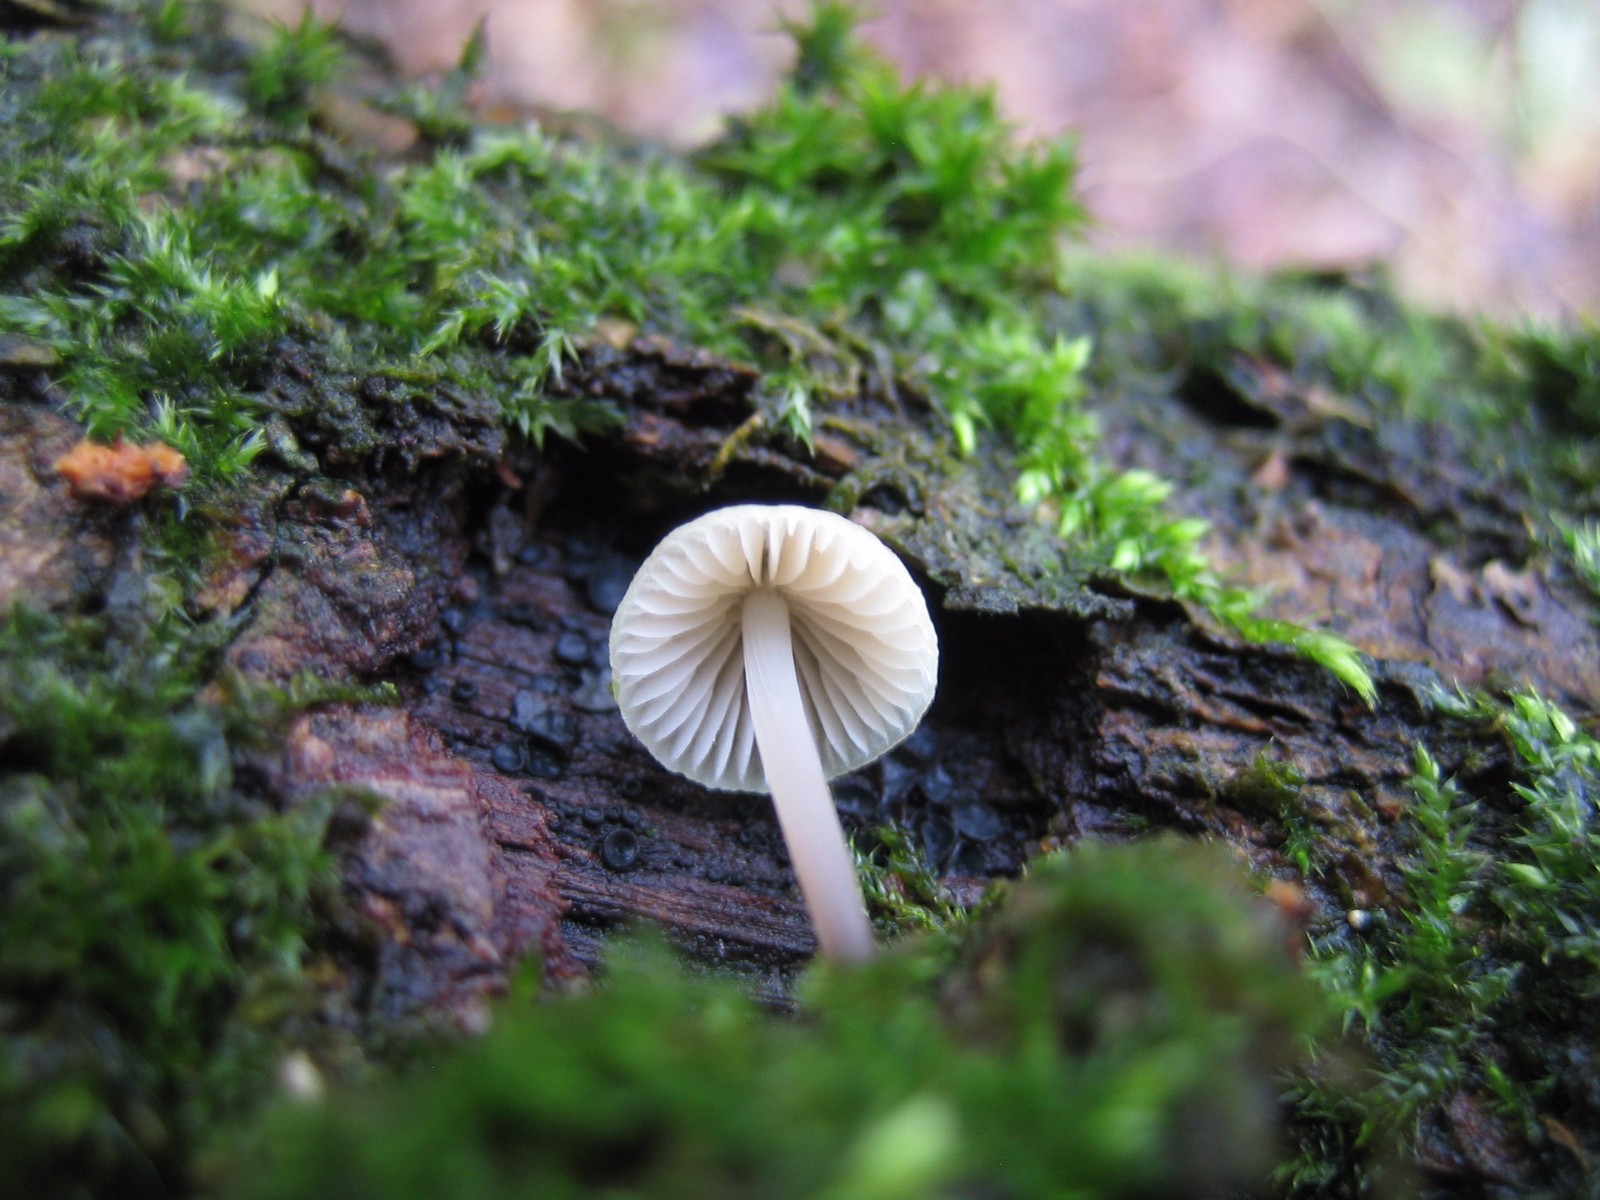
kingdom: Fungi
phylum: Basidiomycota
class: Agaricomycetes
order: Agaricales
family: Mycenaceae
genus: Mycena
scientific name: Mycena
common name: huesvamp
